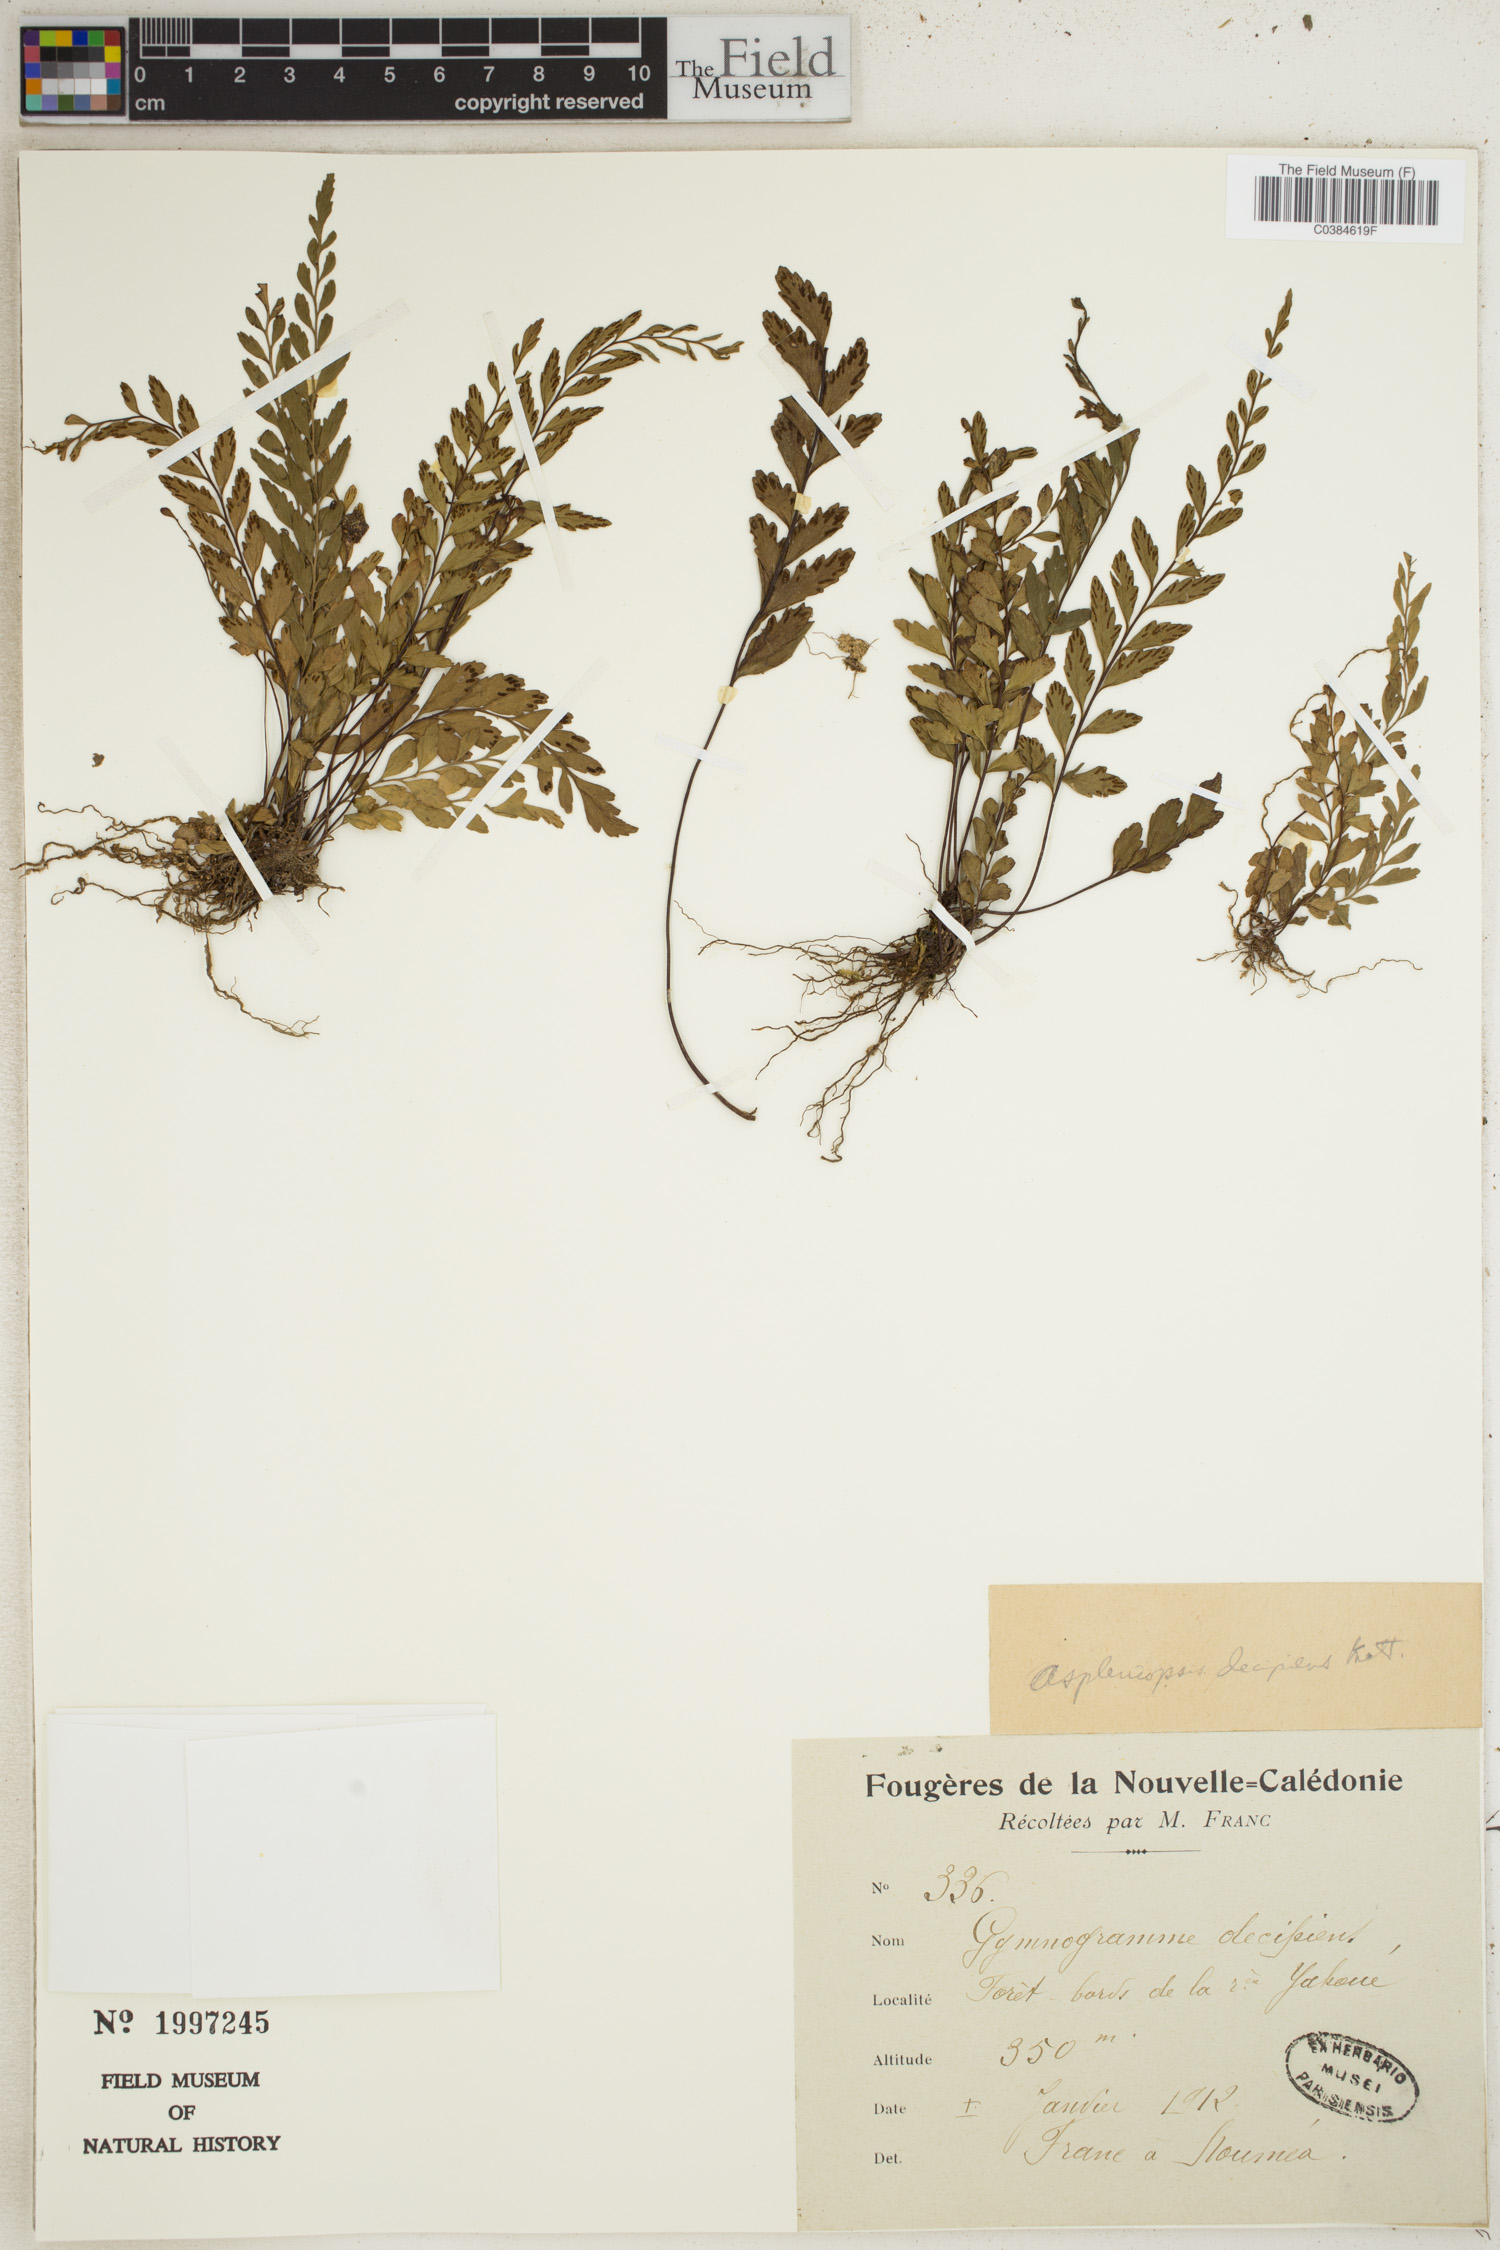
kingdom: Plantae
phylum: Tracheophyta
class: Polypodiopsida
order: Polypodiales
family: Pteridaceae
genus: Austrogramme
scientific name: Austrogramme decipiens
